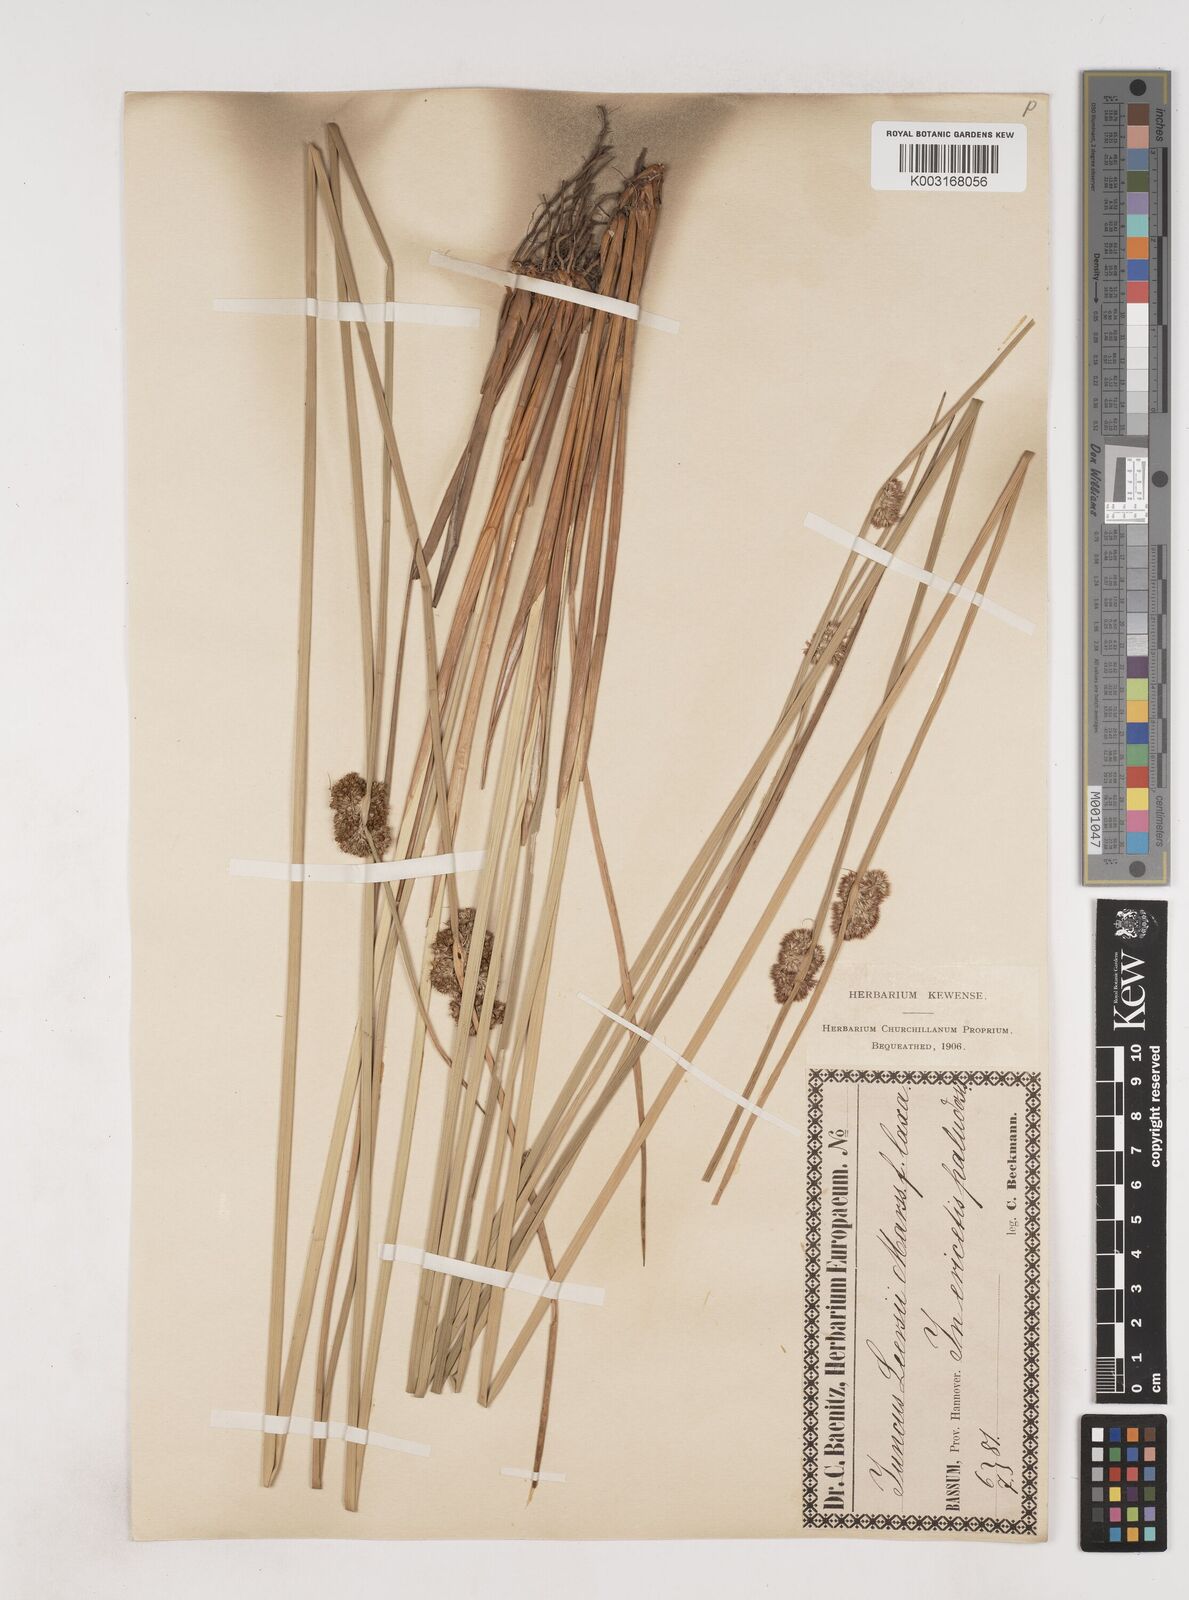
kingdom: Plantae
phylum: Tracheophyta
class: Liliopsida
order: Poales
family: Juncaceae
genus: Juncus
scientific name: Juncus conglomeratus
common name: Compact rush
